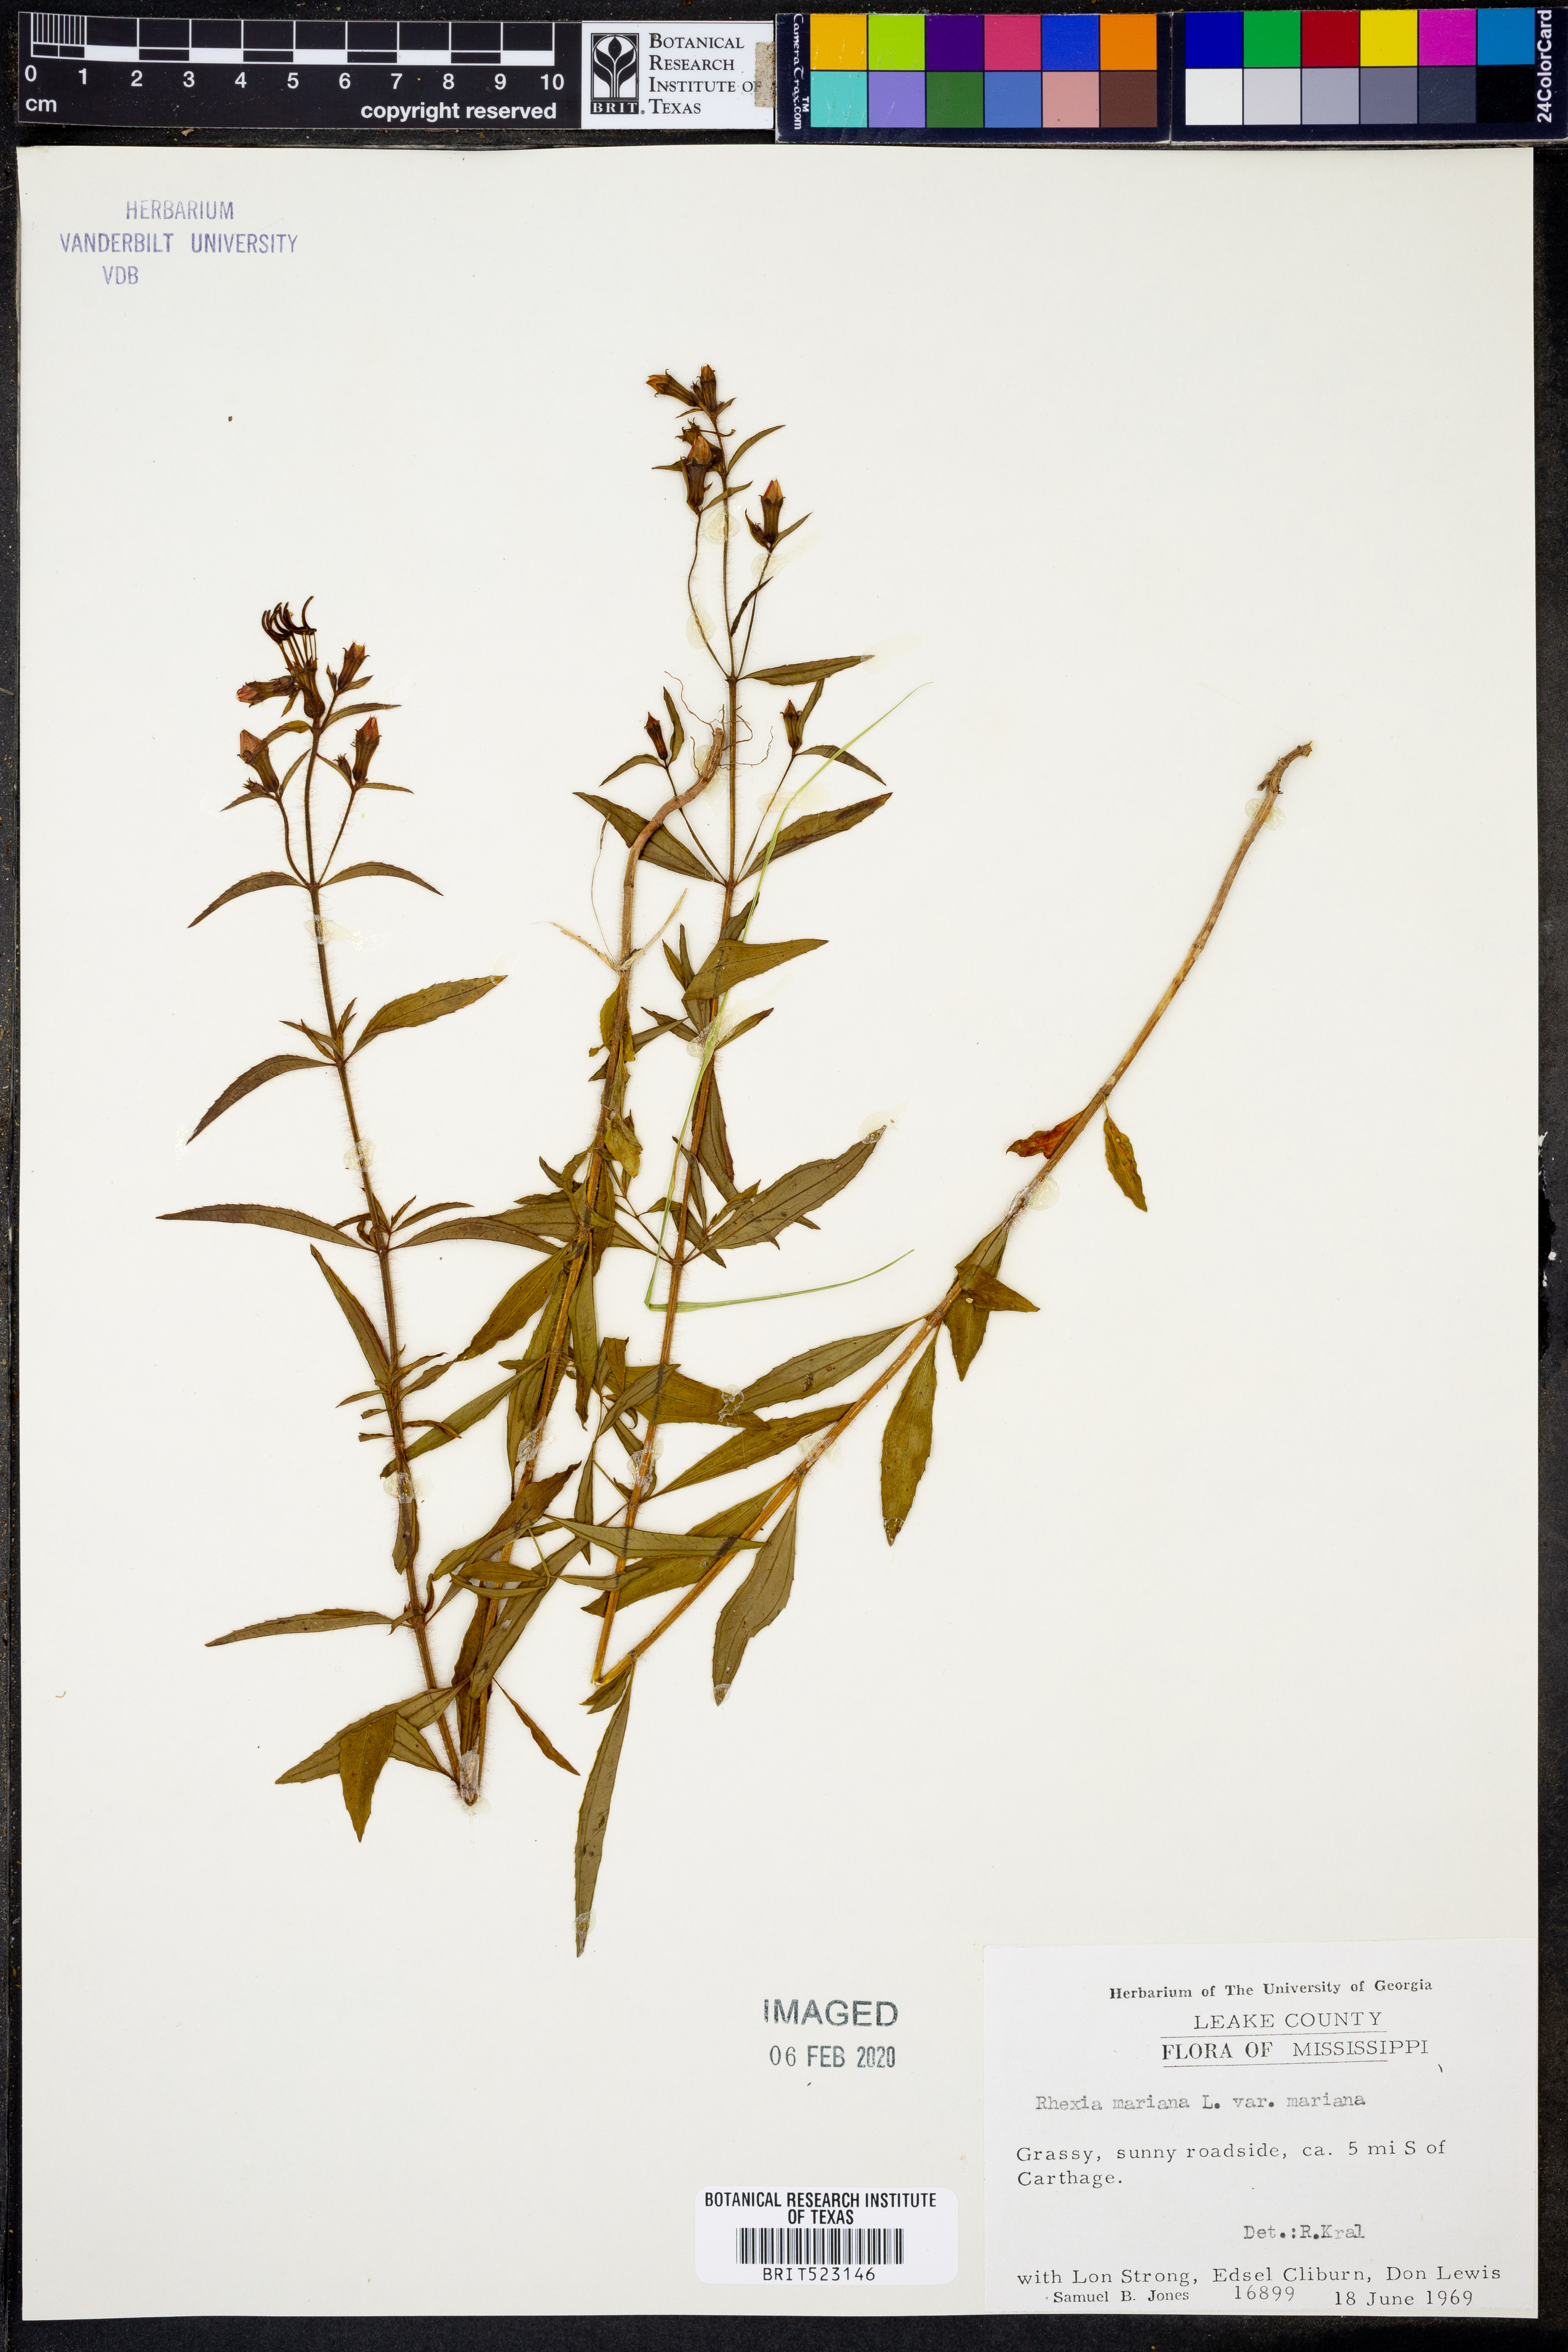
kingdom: Plantae
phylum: Tracheophyta
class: Magnoliopsida
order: Myrtales
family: Melastomataceae
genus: Rhexia
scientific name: Rhexia mariana
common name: Dull meadow-pitcher
